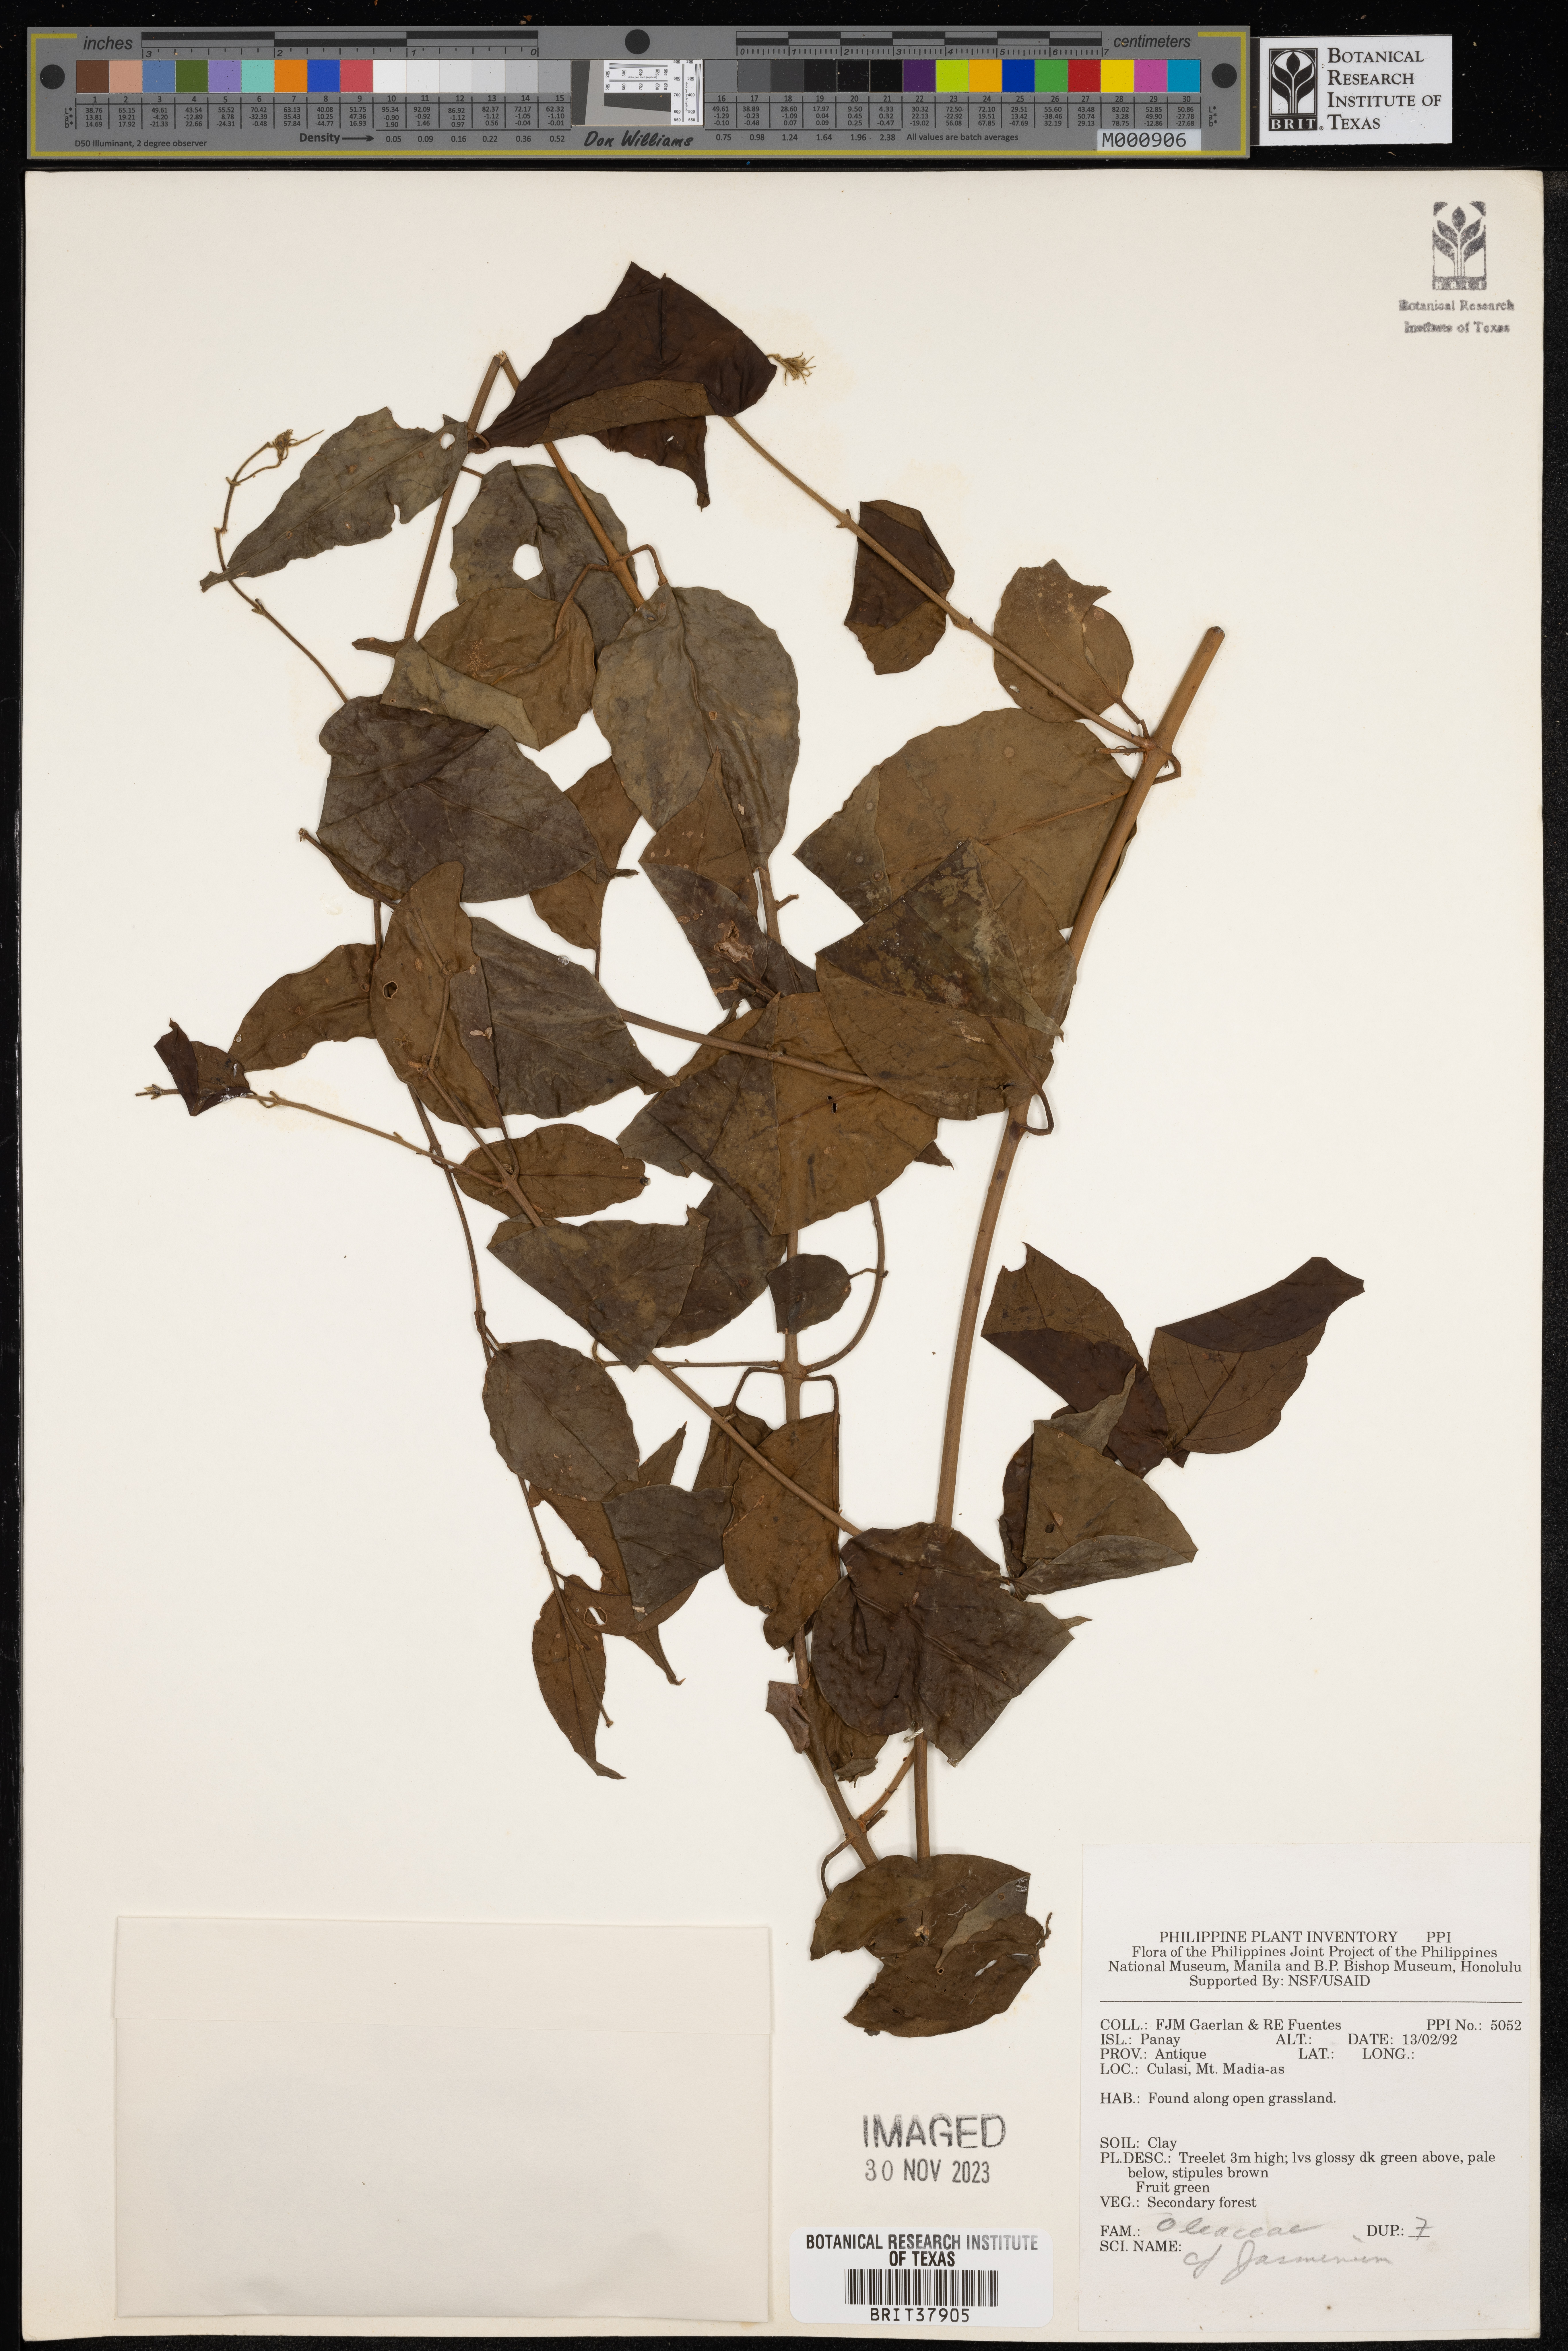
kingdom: Plantae
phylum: Tracheophyta
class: Magnoliopsida
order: Lamiales
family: Oleaceae
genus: Jasminum
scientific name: Jasminum
